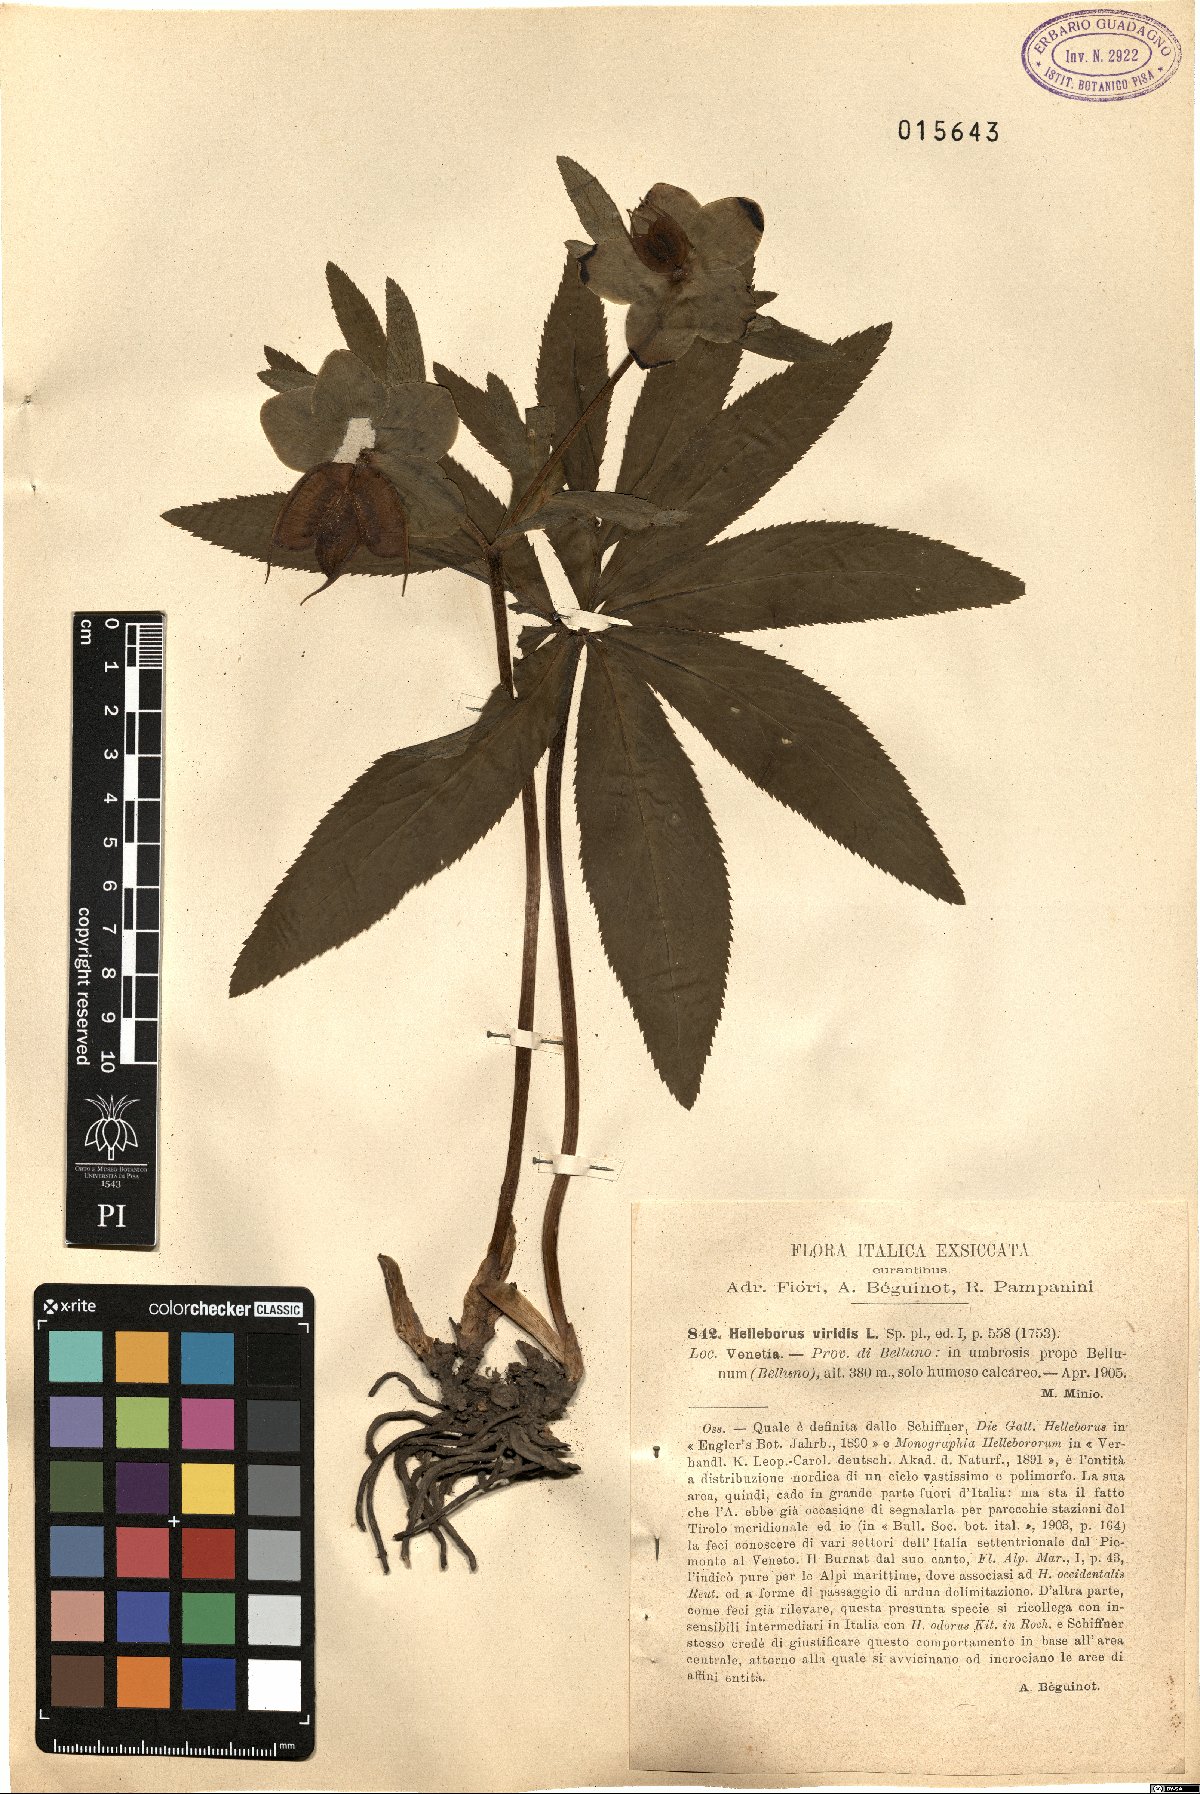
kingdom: Plantae
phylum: Tracheophyta
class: Magnoliopsida
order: Ranunculales
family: Ranunculaceae
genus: Helleborus
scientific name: Helleborus viridis
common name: Green hellebore
